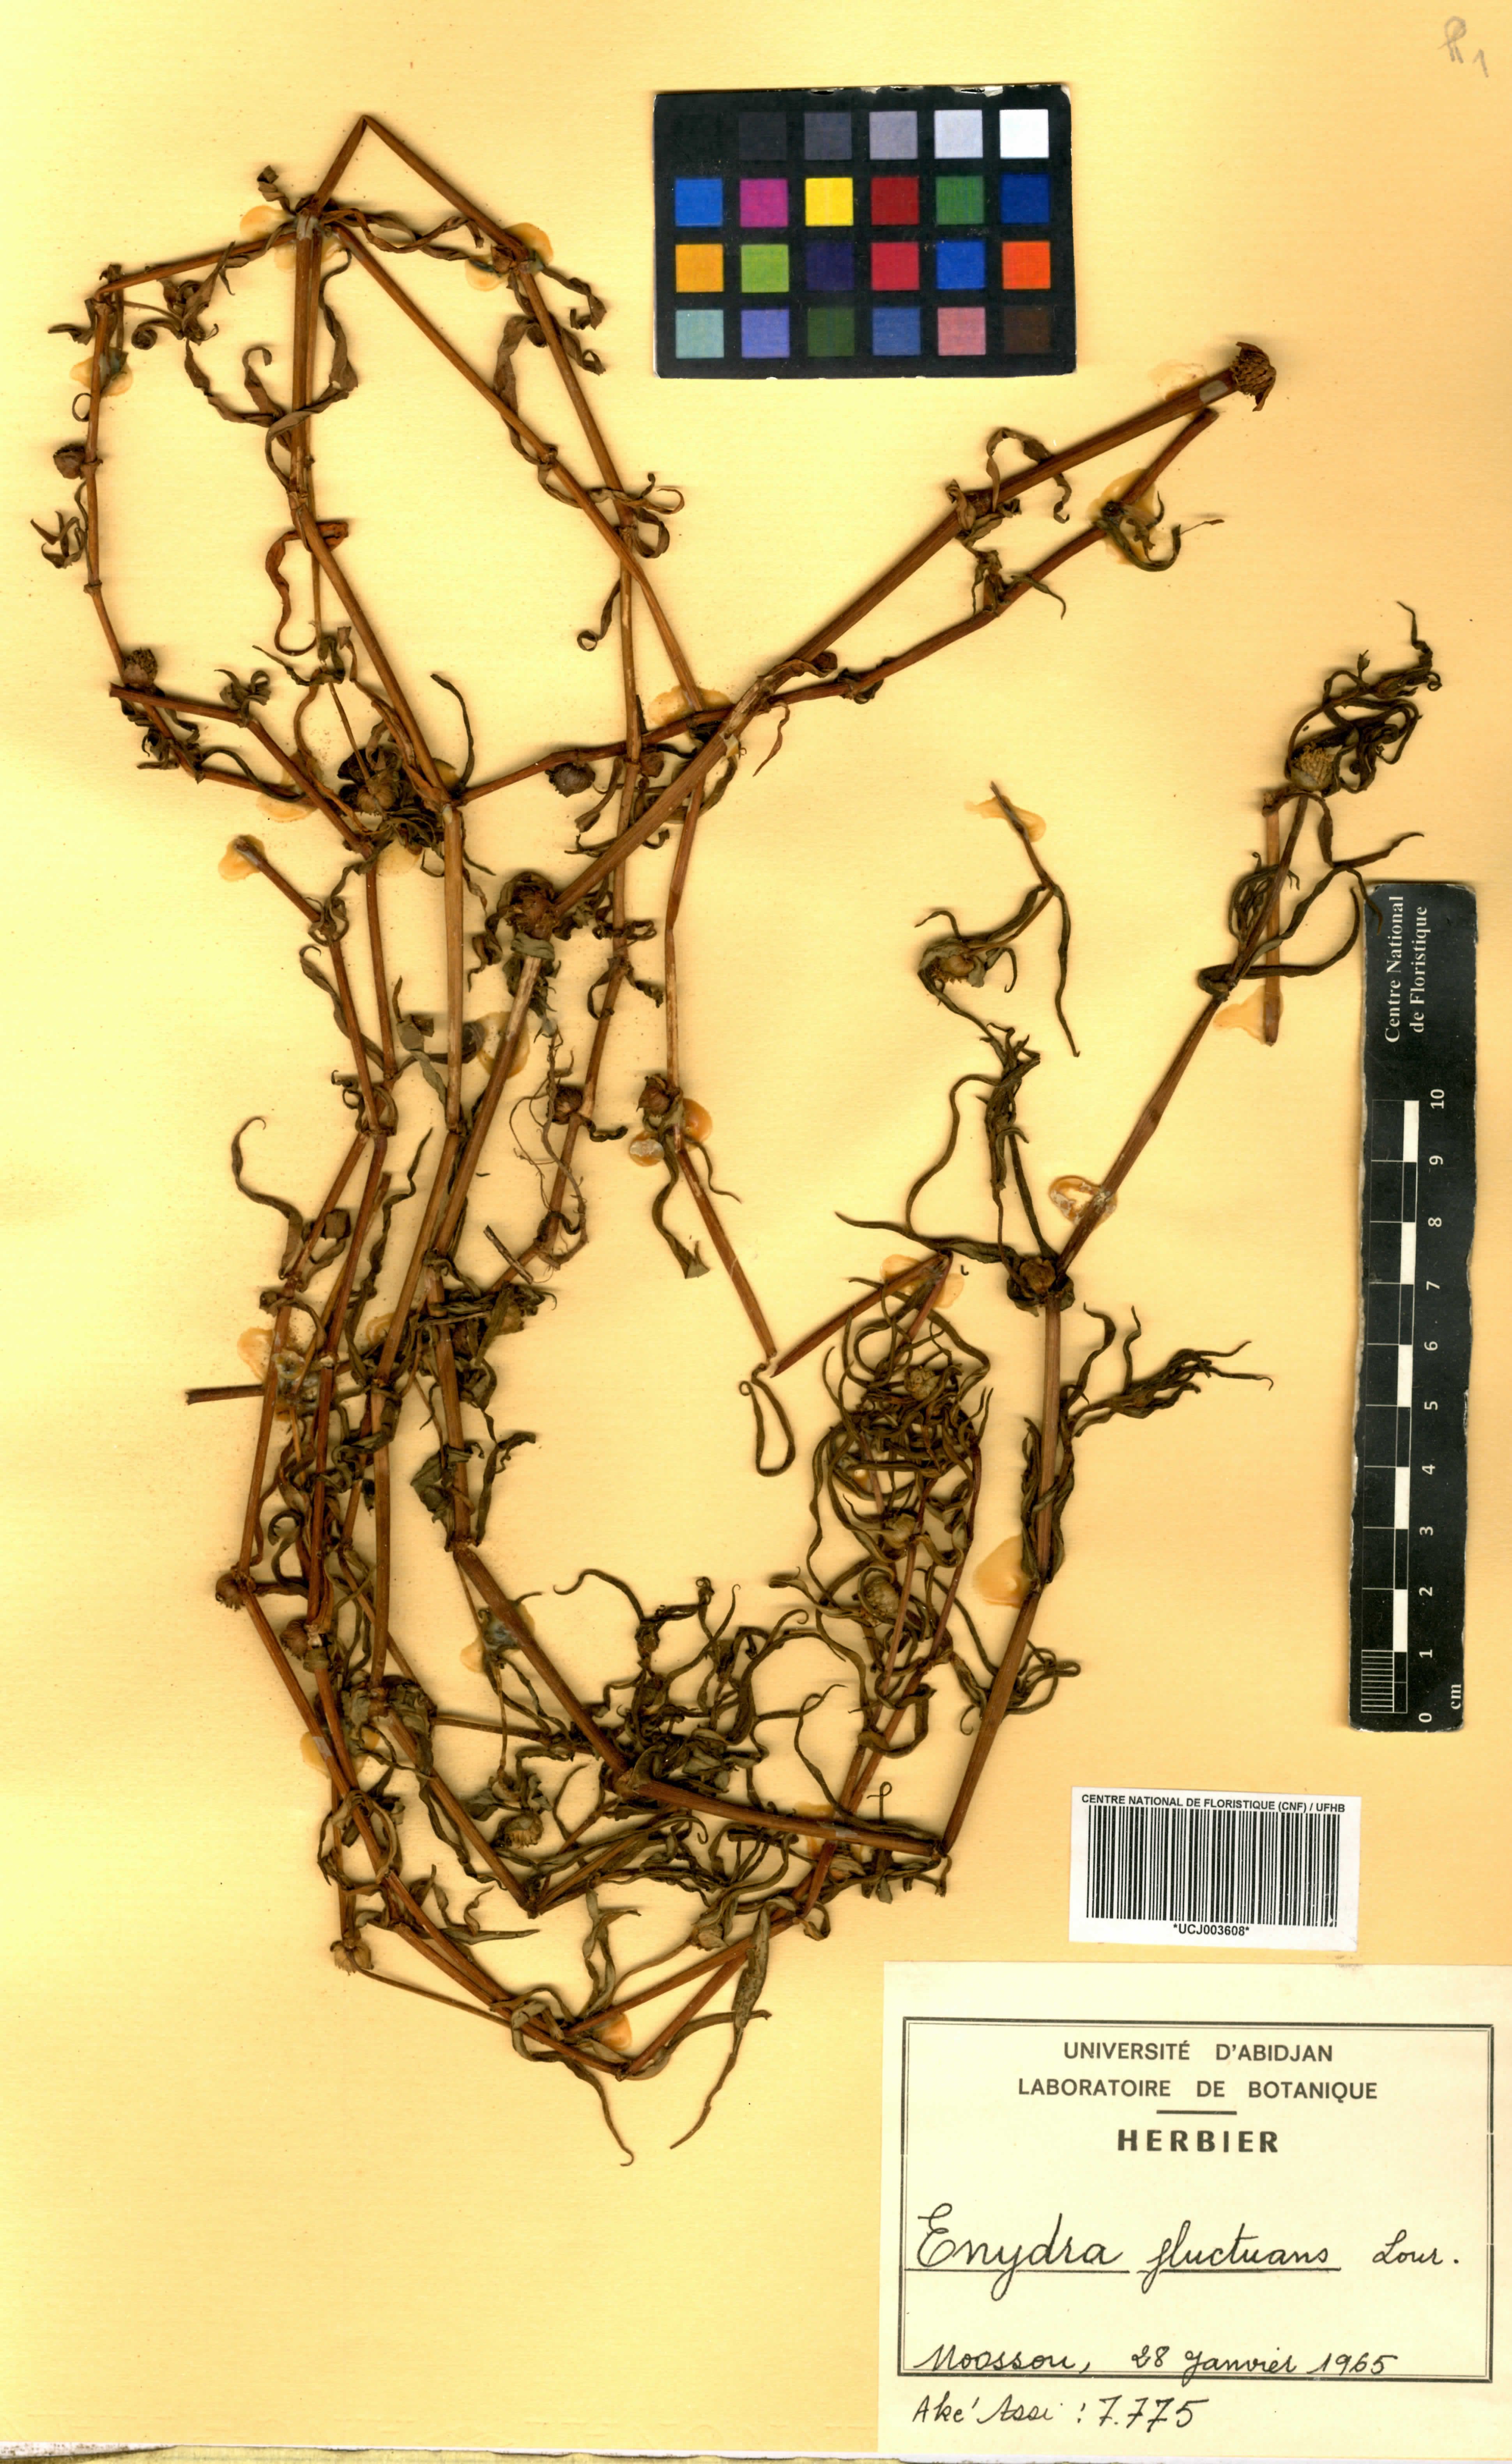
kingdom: Plantae
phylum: Tracheophyta
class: Magnoliopsida
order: Asterales
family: Asteraceae
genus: Enydra
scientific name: Enydra fluctuans
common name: Buffalo spinach
